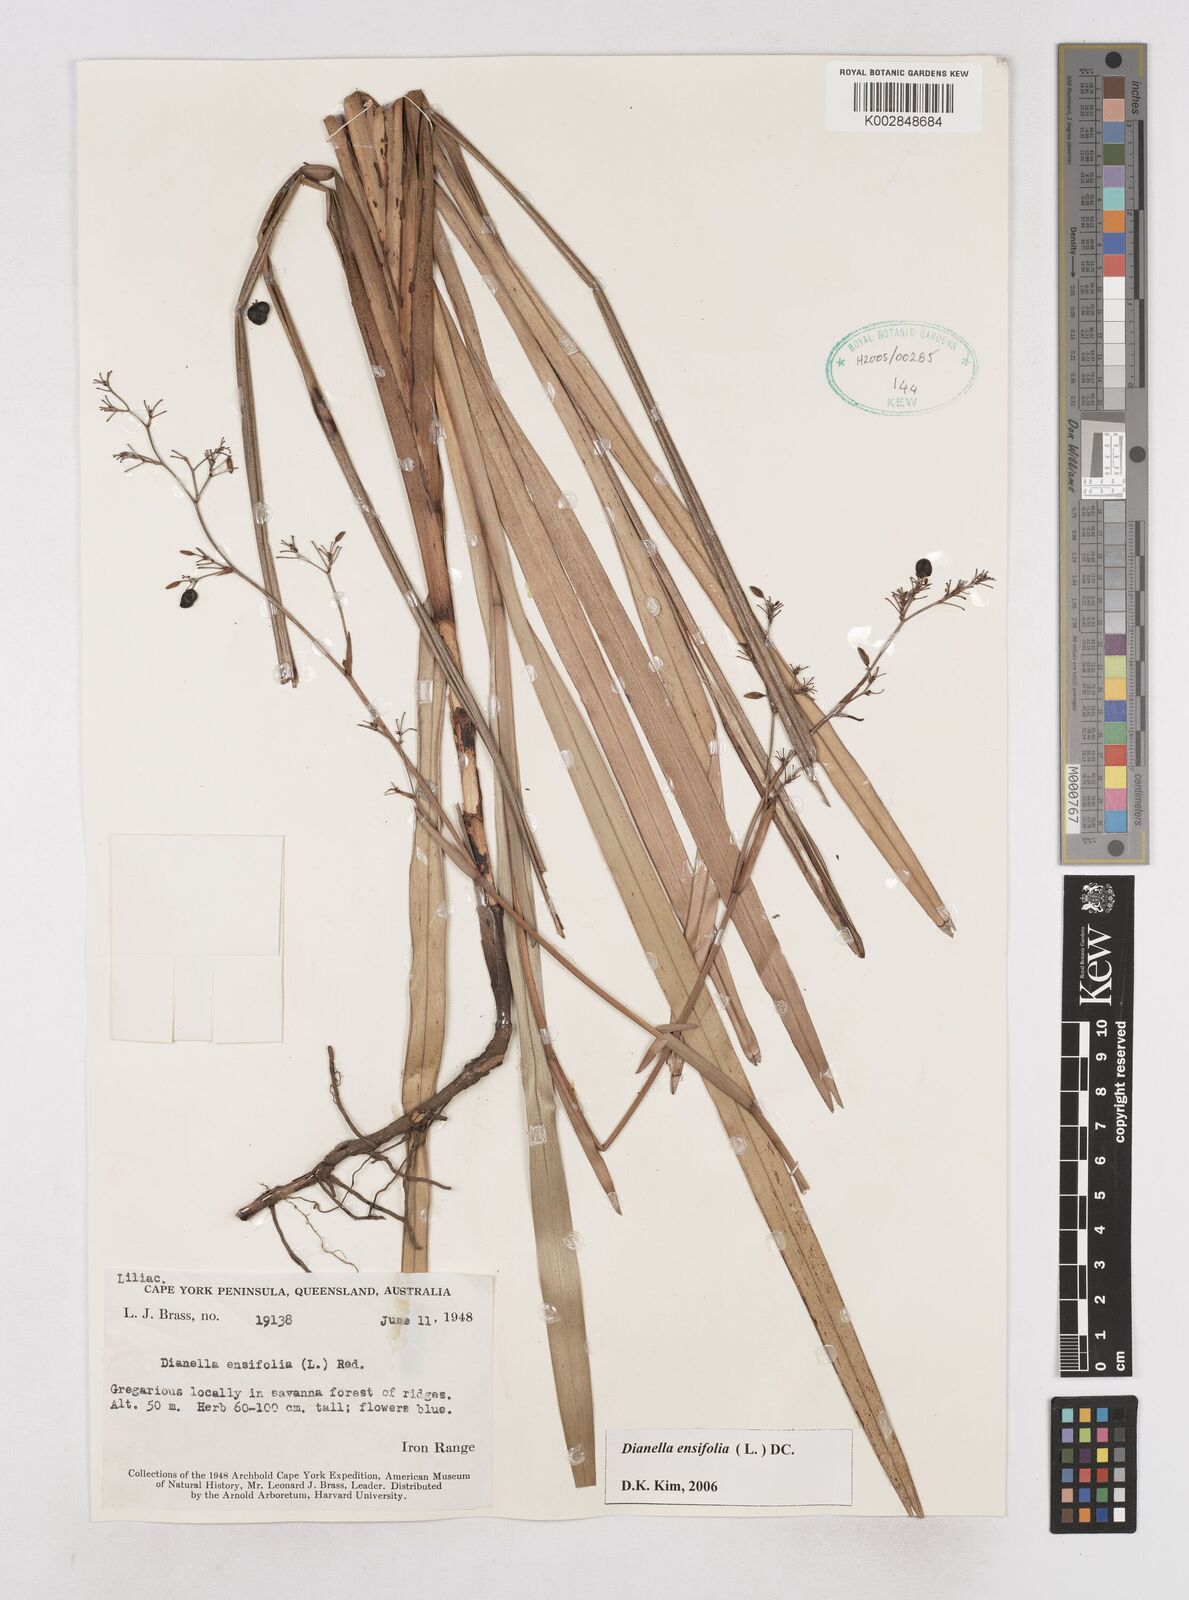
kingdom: Plantae
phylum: Tracheophyta
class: Liliopsida
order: Asparagales
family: Asphodelaceae
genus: Dianella
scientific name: Dianella ensifolia
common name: New zealand lilyplant
